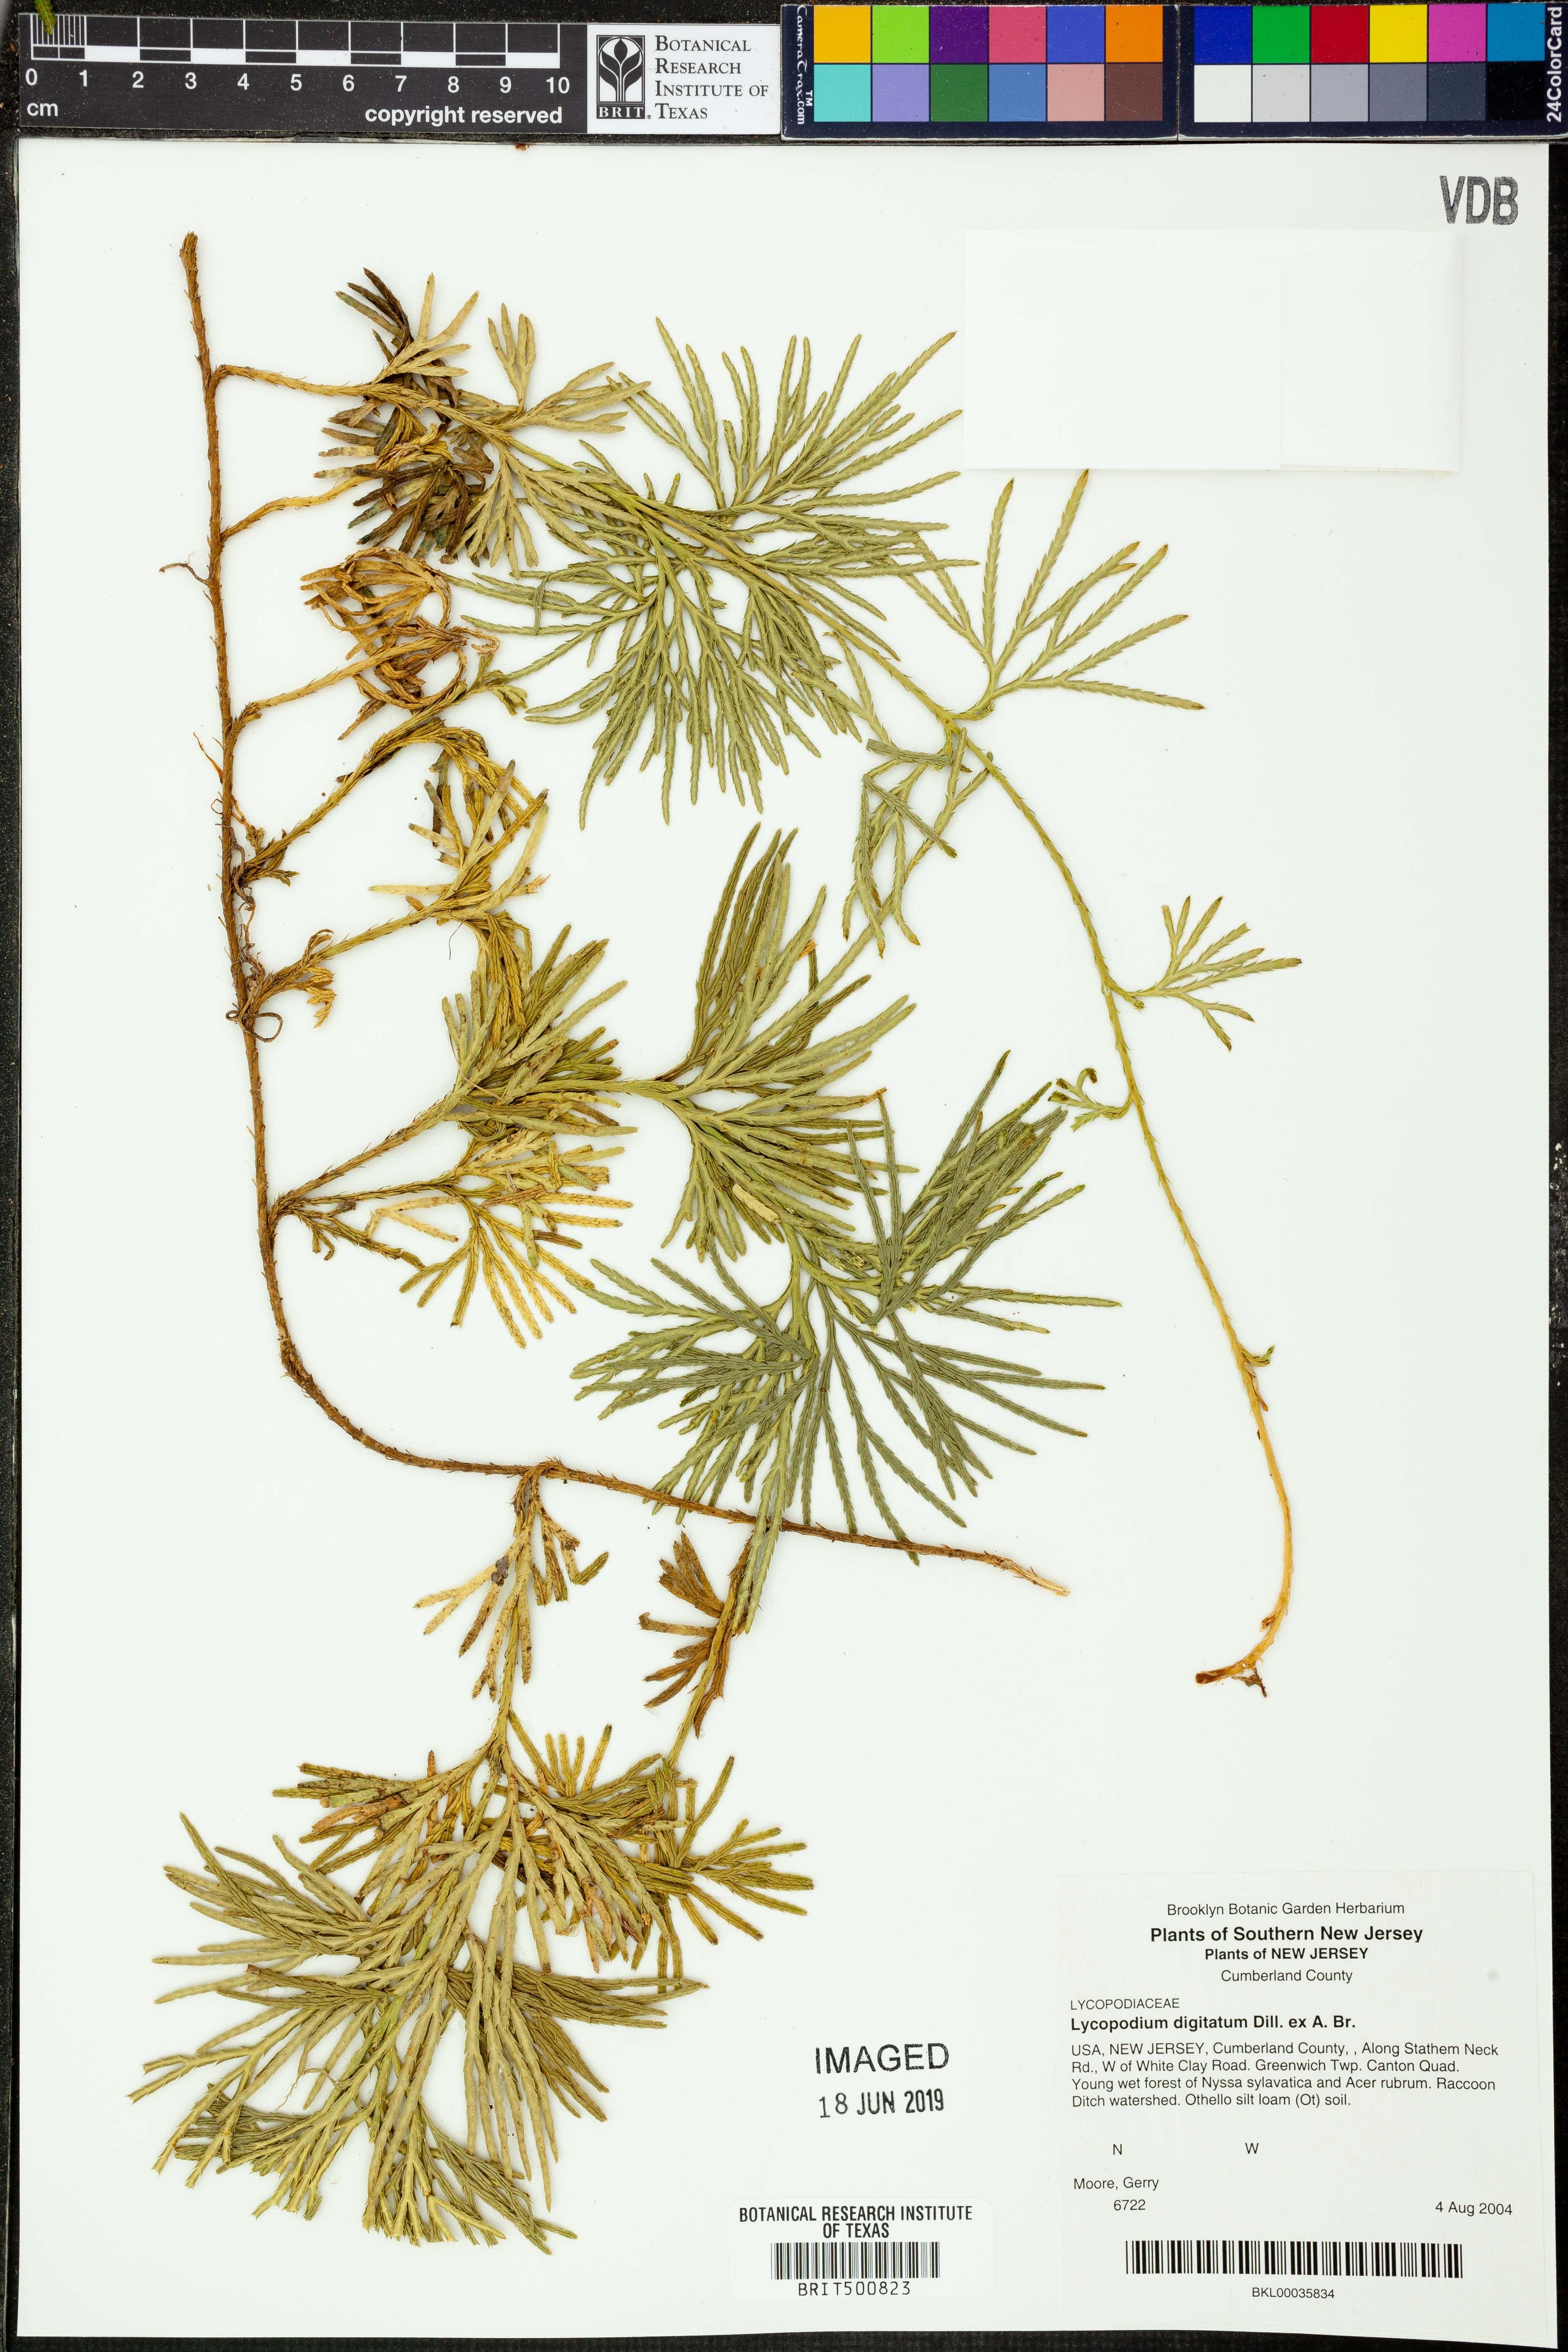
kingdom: Plantae
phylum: Tracheophyta
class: Lycopodiopsida
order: Lycopodiales
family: Lycopodiaceae
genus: Diphasiastrum
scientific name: Diphasiastrum digitatum
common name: Southern running-pine
